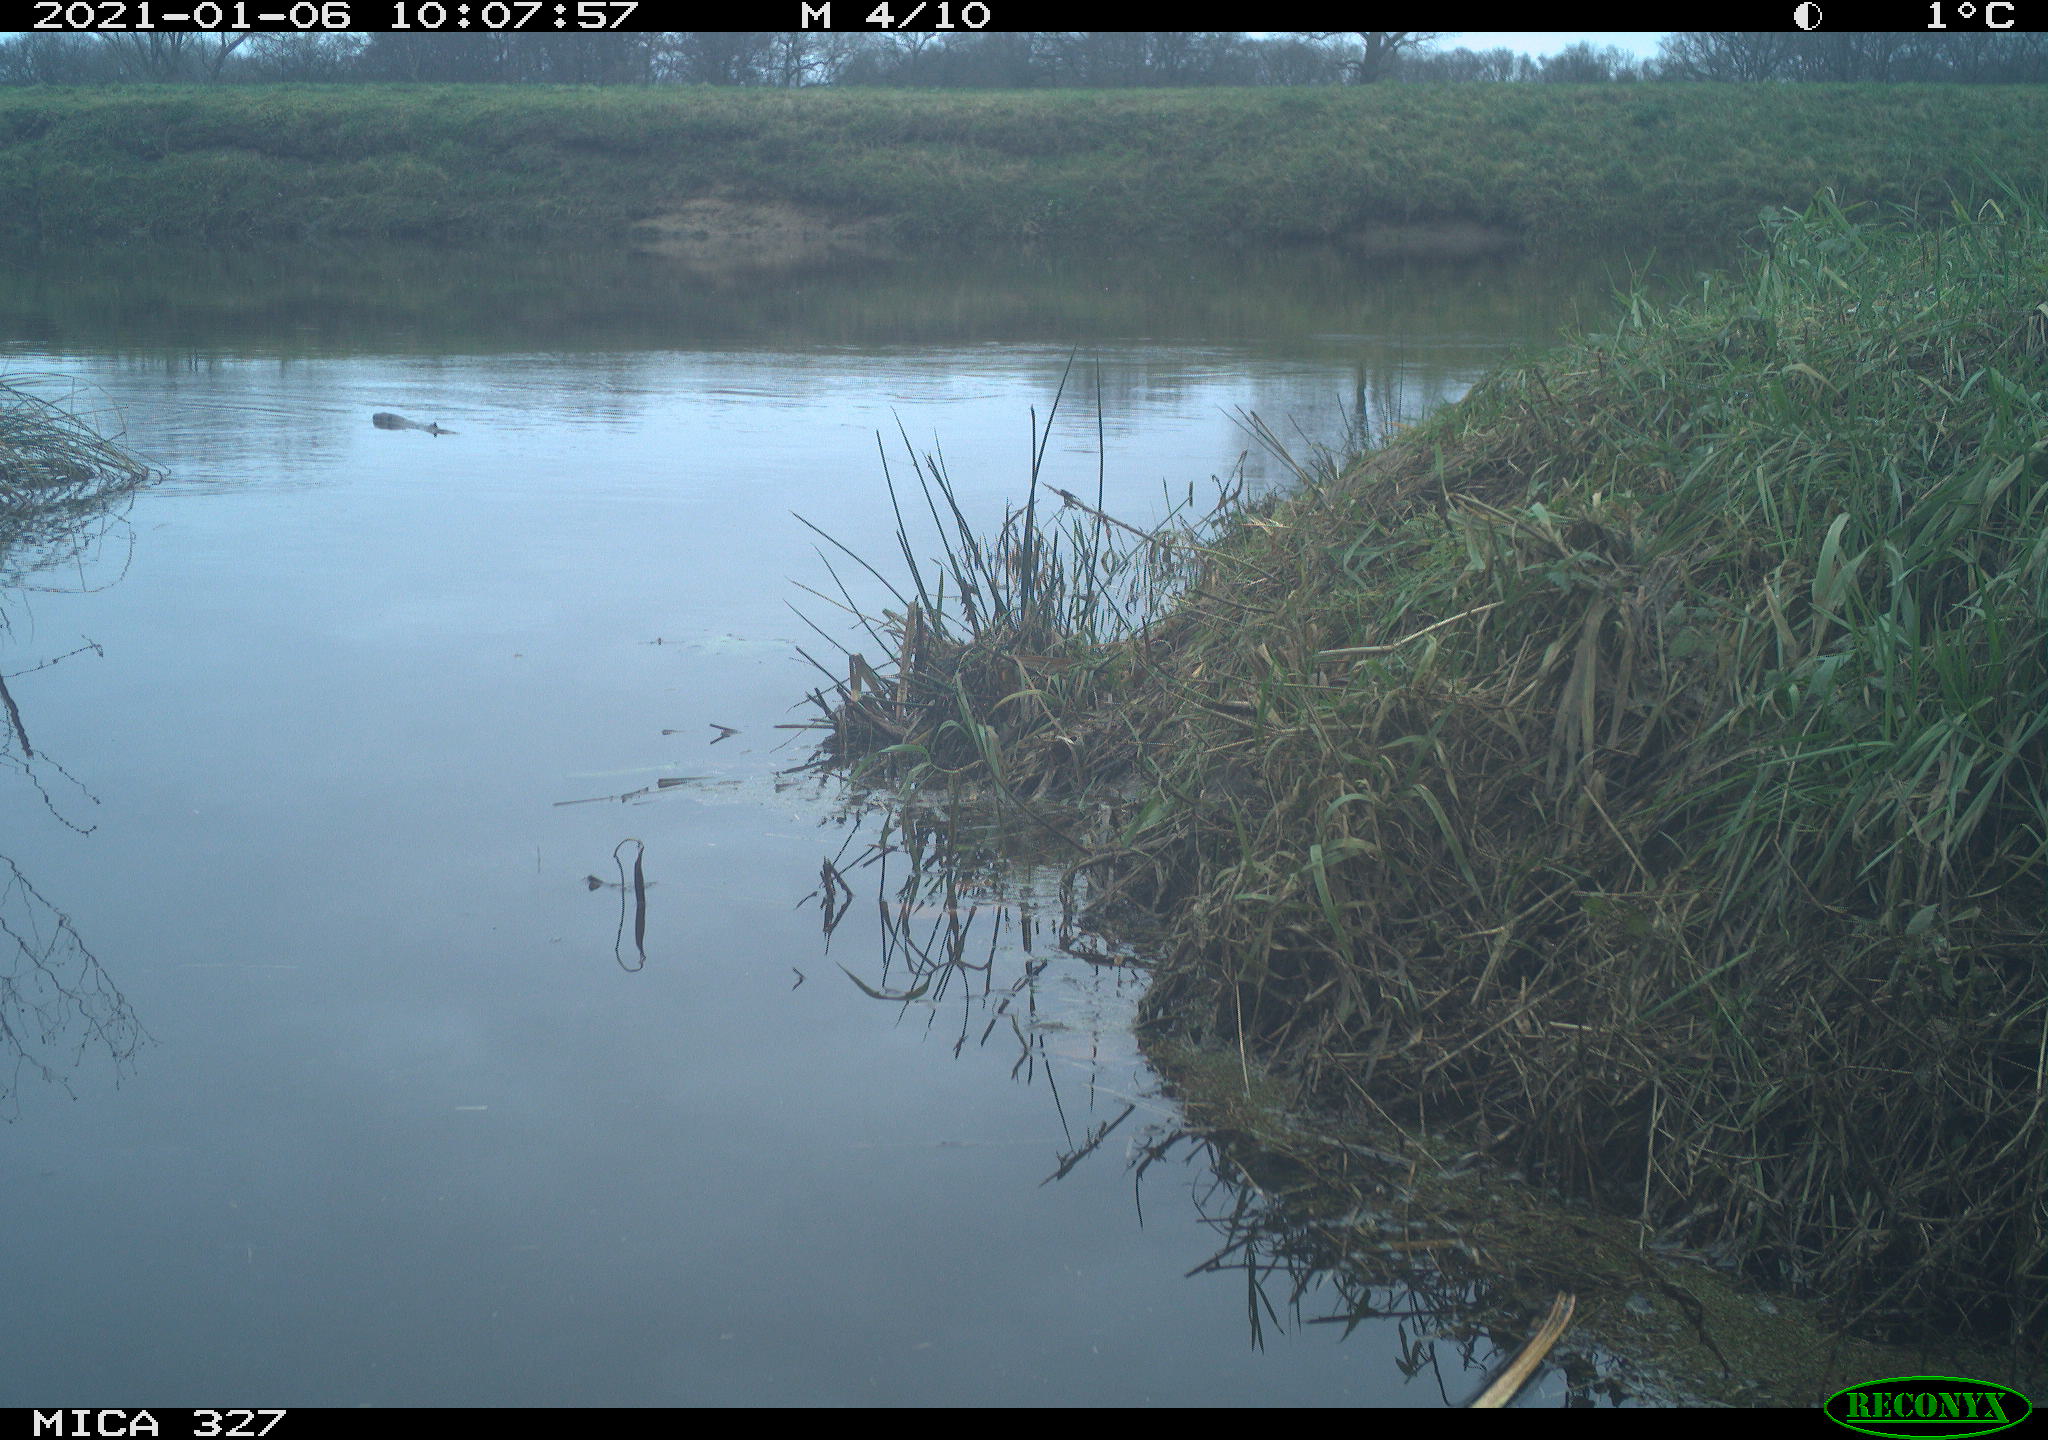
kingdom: Animalia
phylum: Chordata
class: Aves
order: Pelecaniformes
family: Ardeidae
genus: Ardea
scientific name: Ardea cinerea
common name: Grey heron
